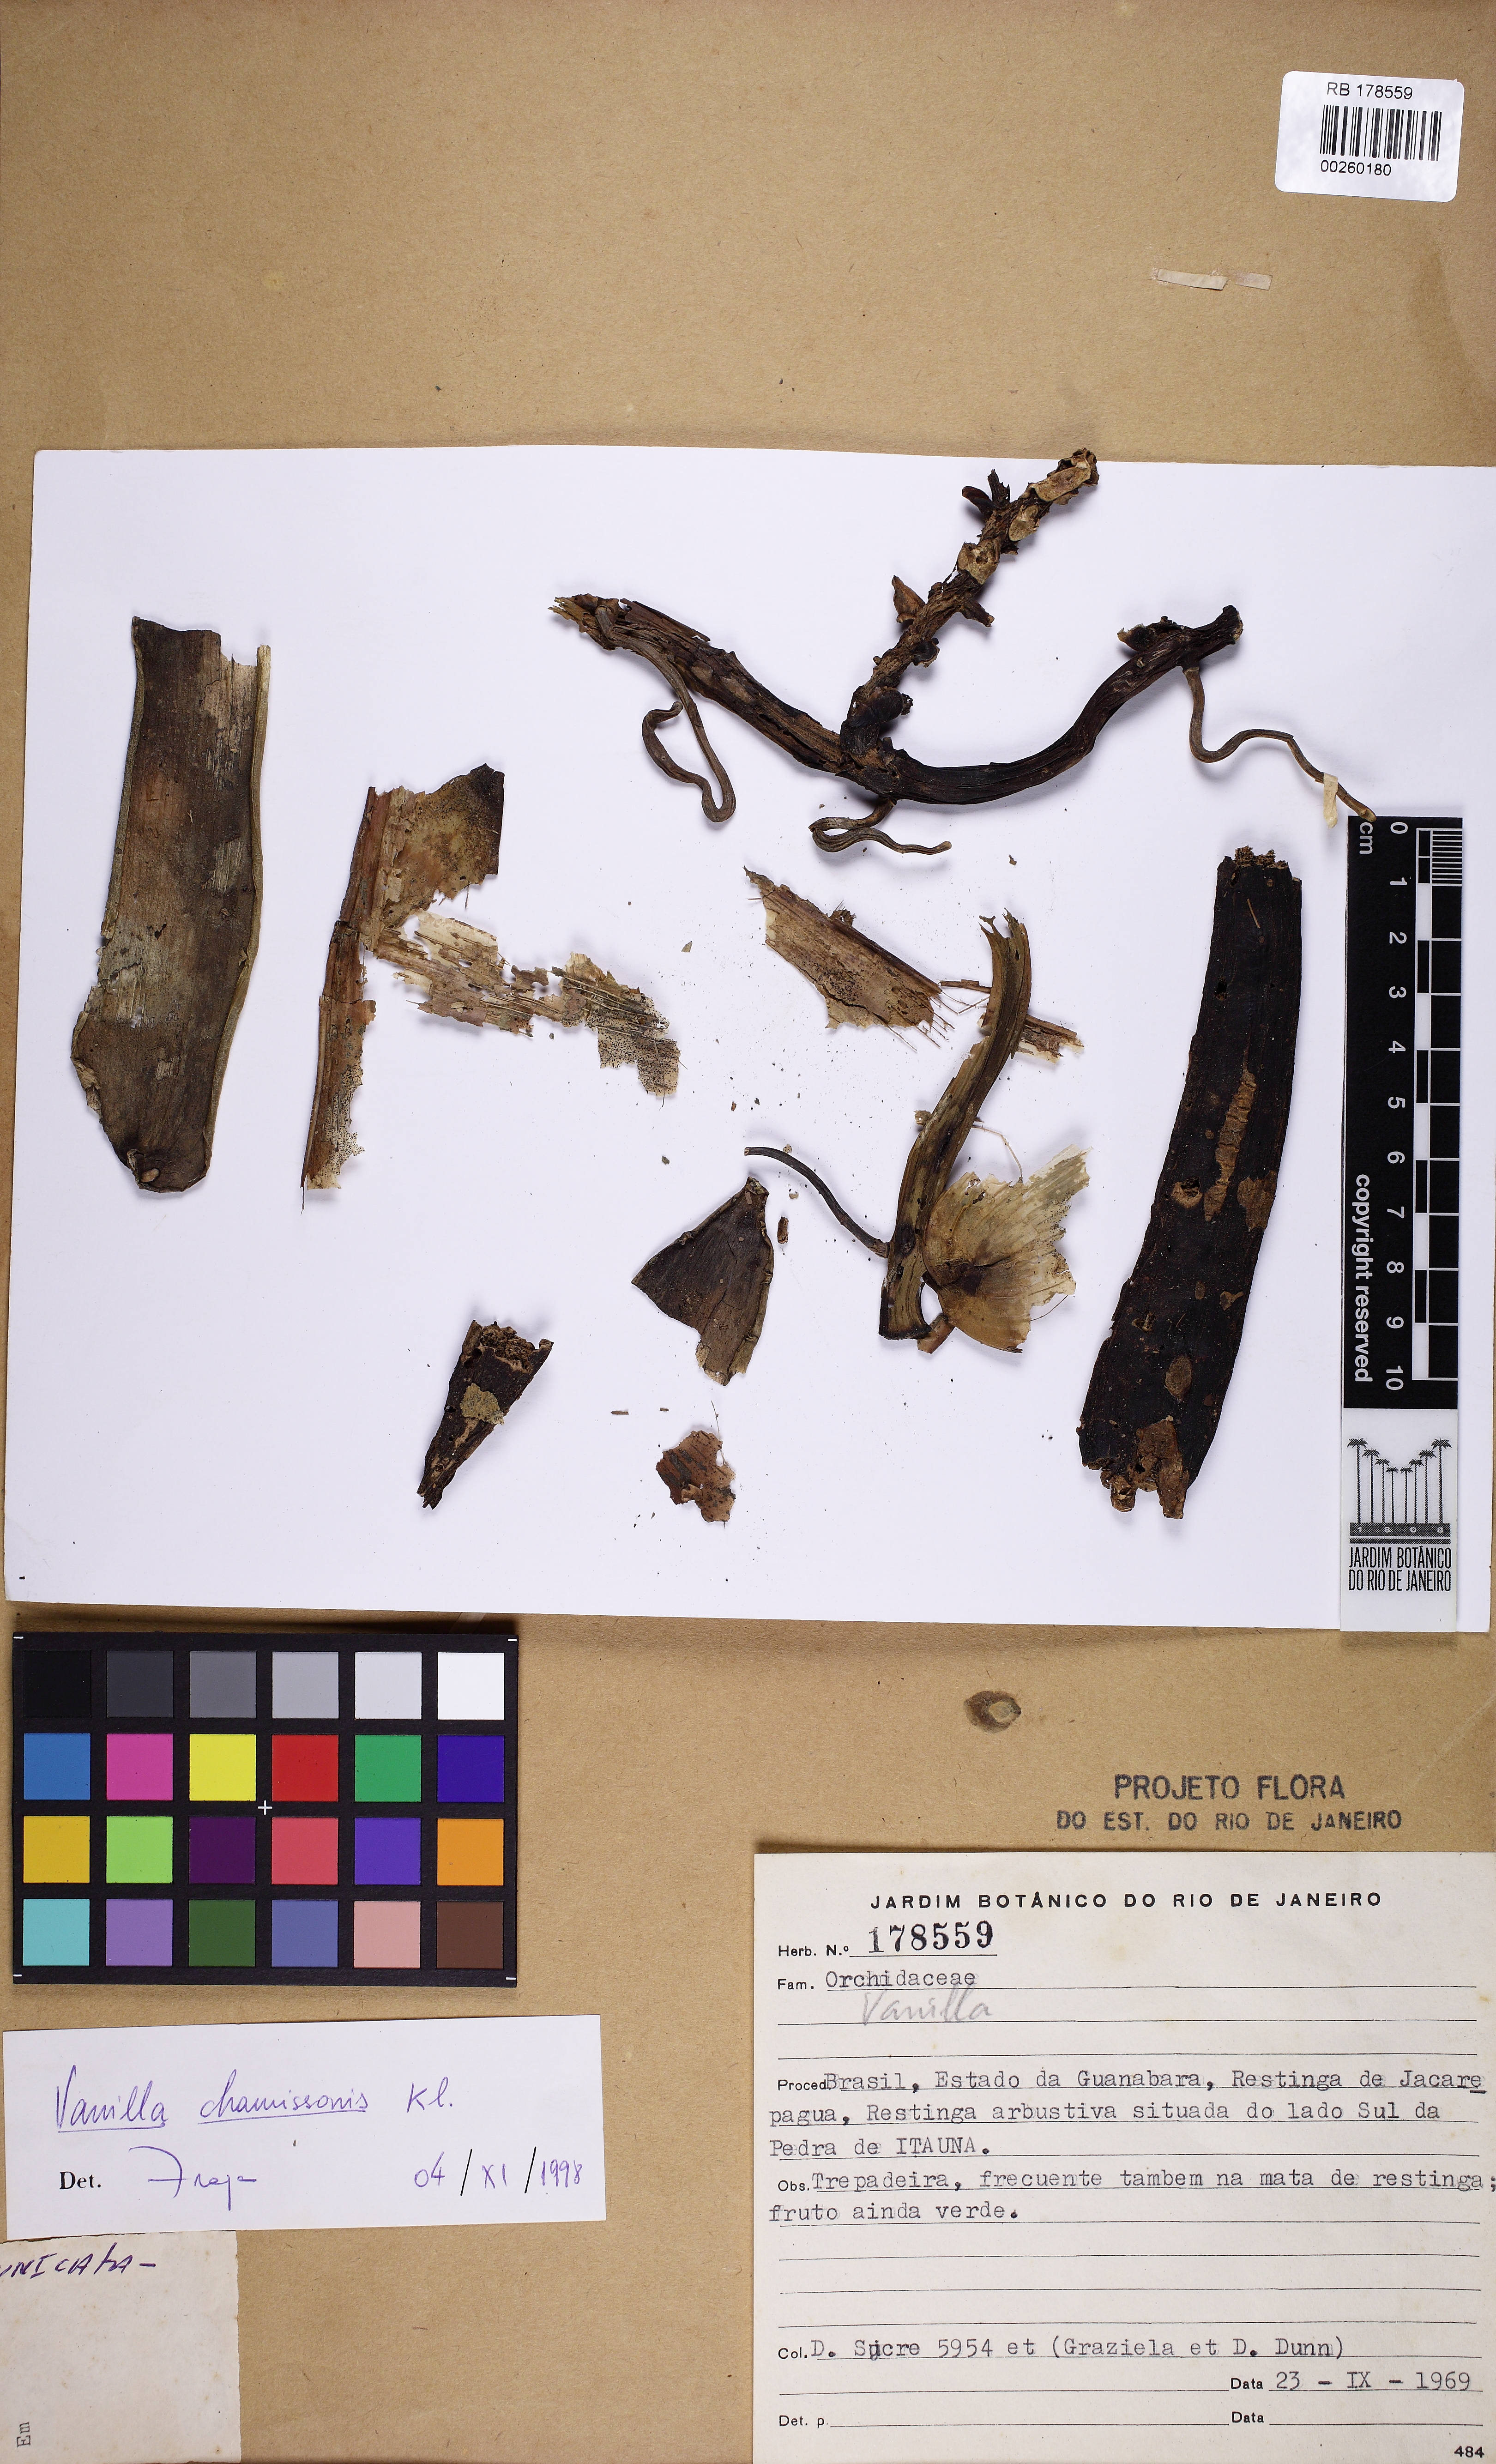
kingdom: Plantae
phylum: Tracheophyta
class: Liliopsida
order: Asparagales
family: Orchidaceae
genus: Vanilla
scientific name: Vanilla chamissonis
